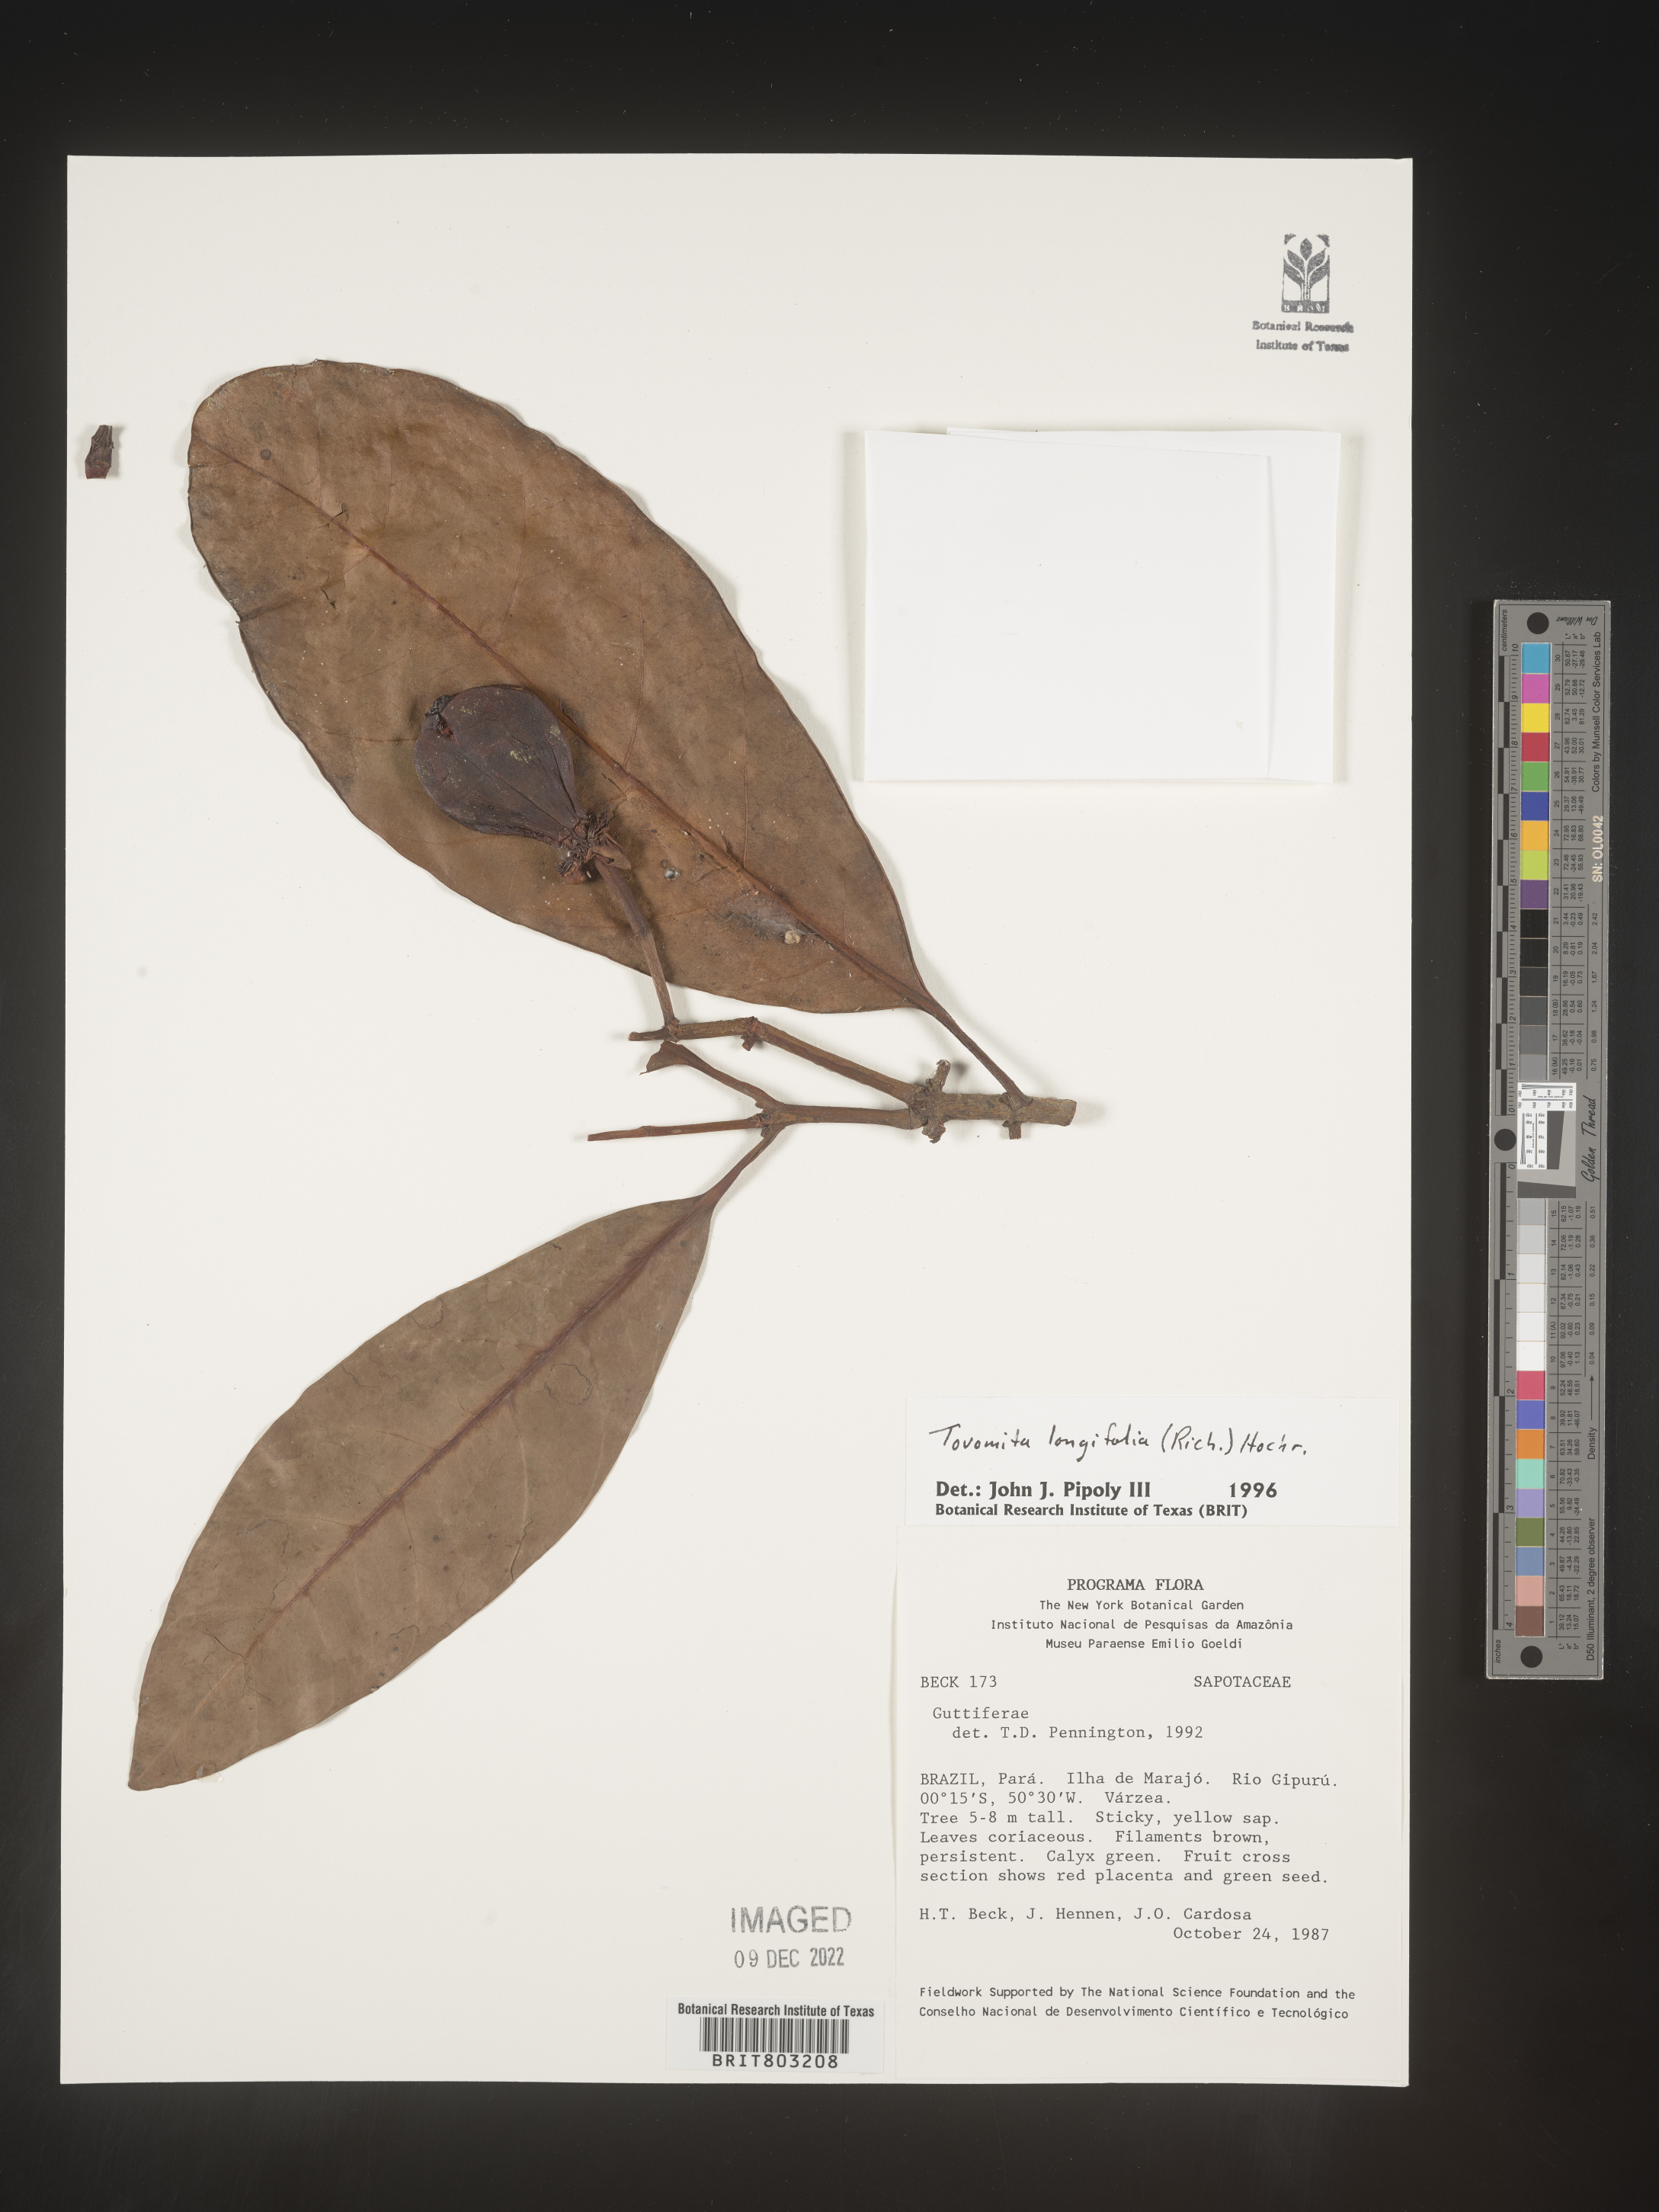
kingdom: Plantae
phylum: Tracheophyta
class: Magnoliopsida
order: Malpighiales
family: Clusiaceae
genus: Tovomita
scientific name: Tovomita
